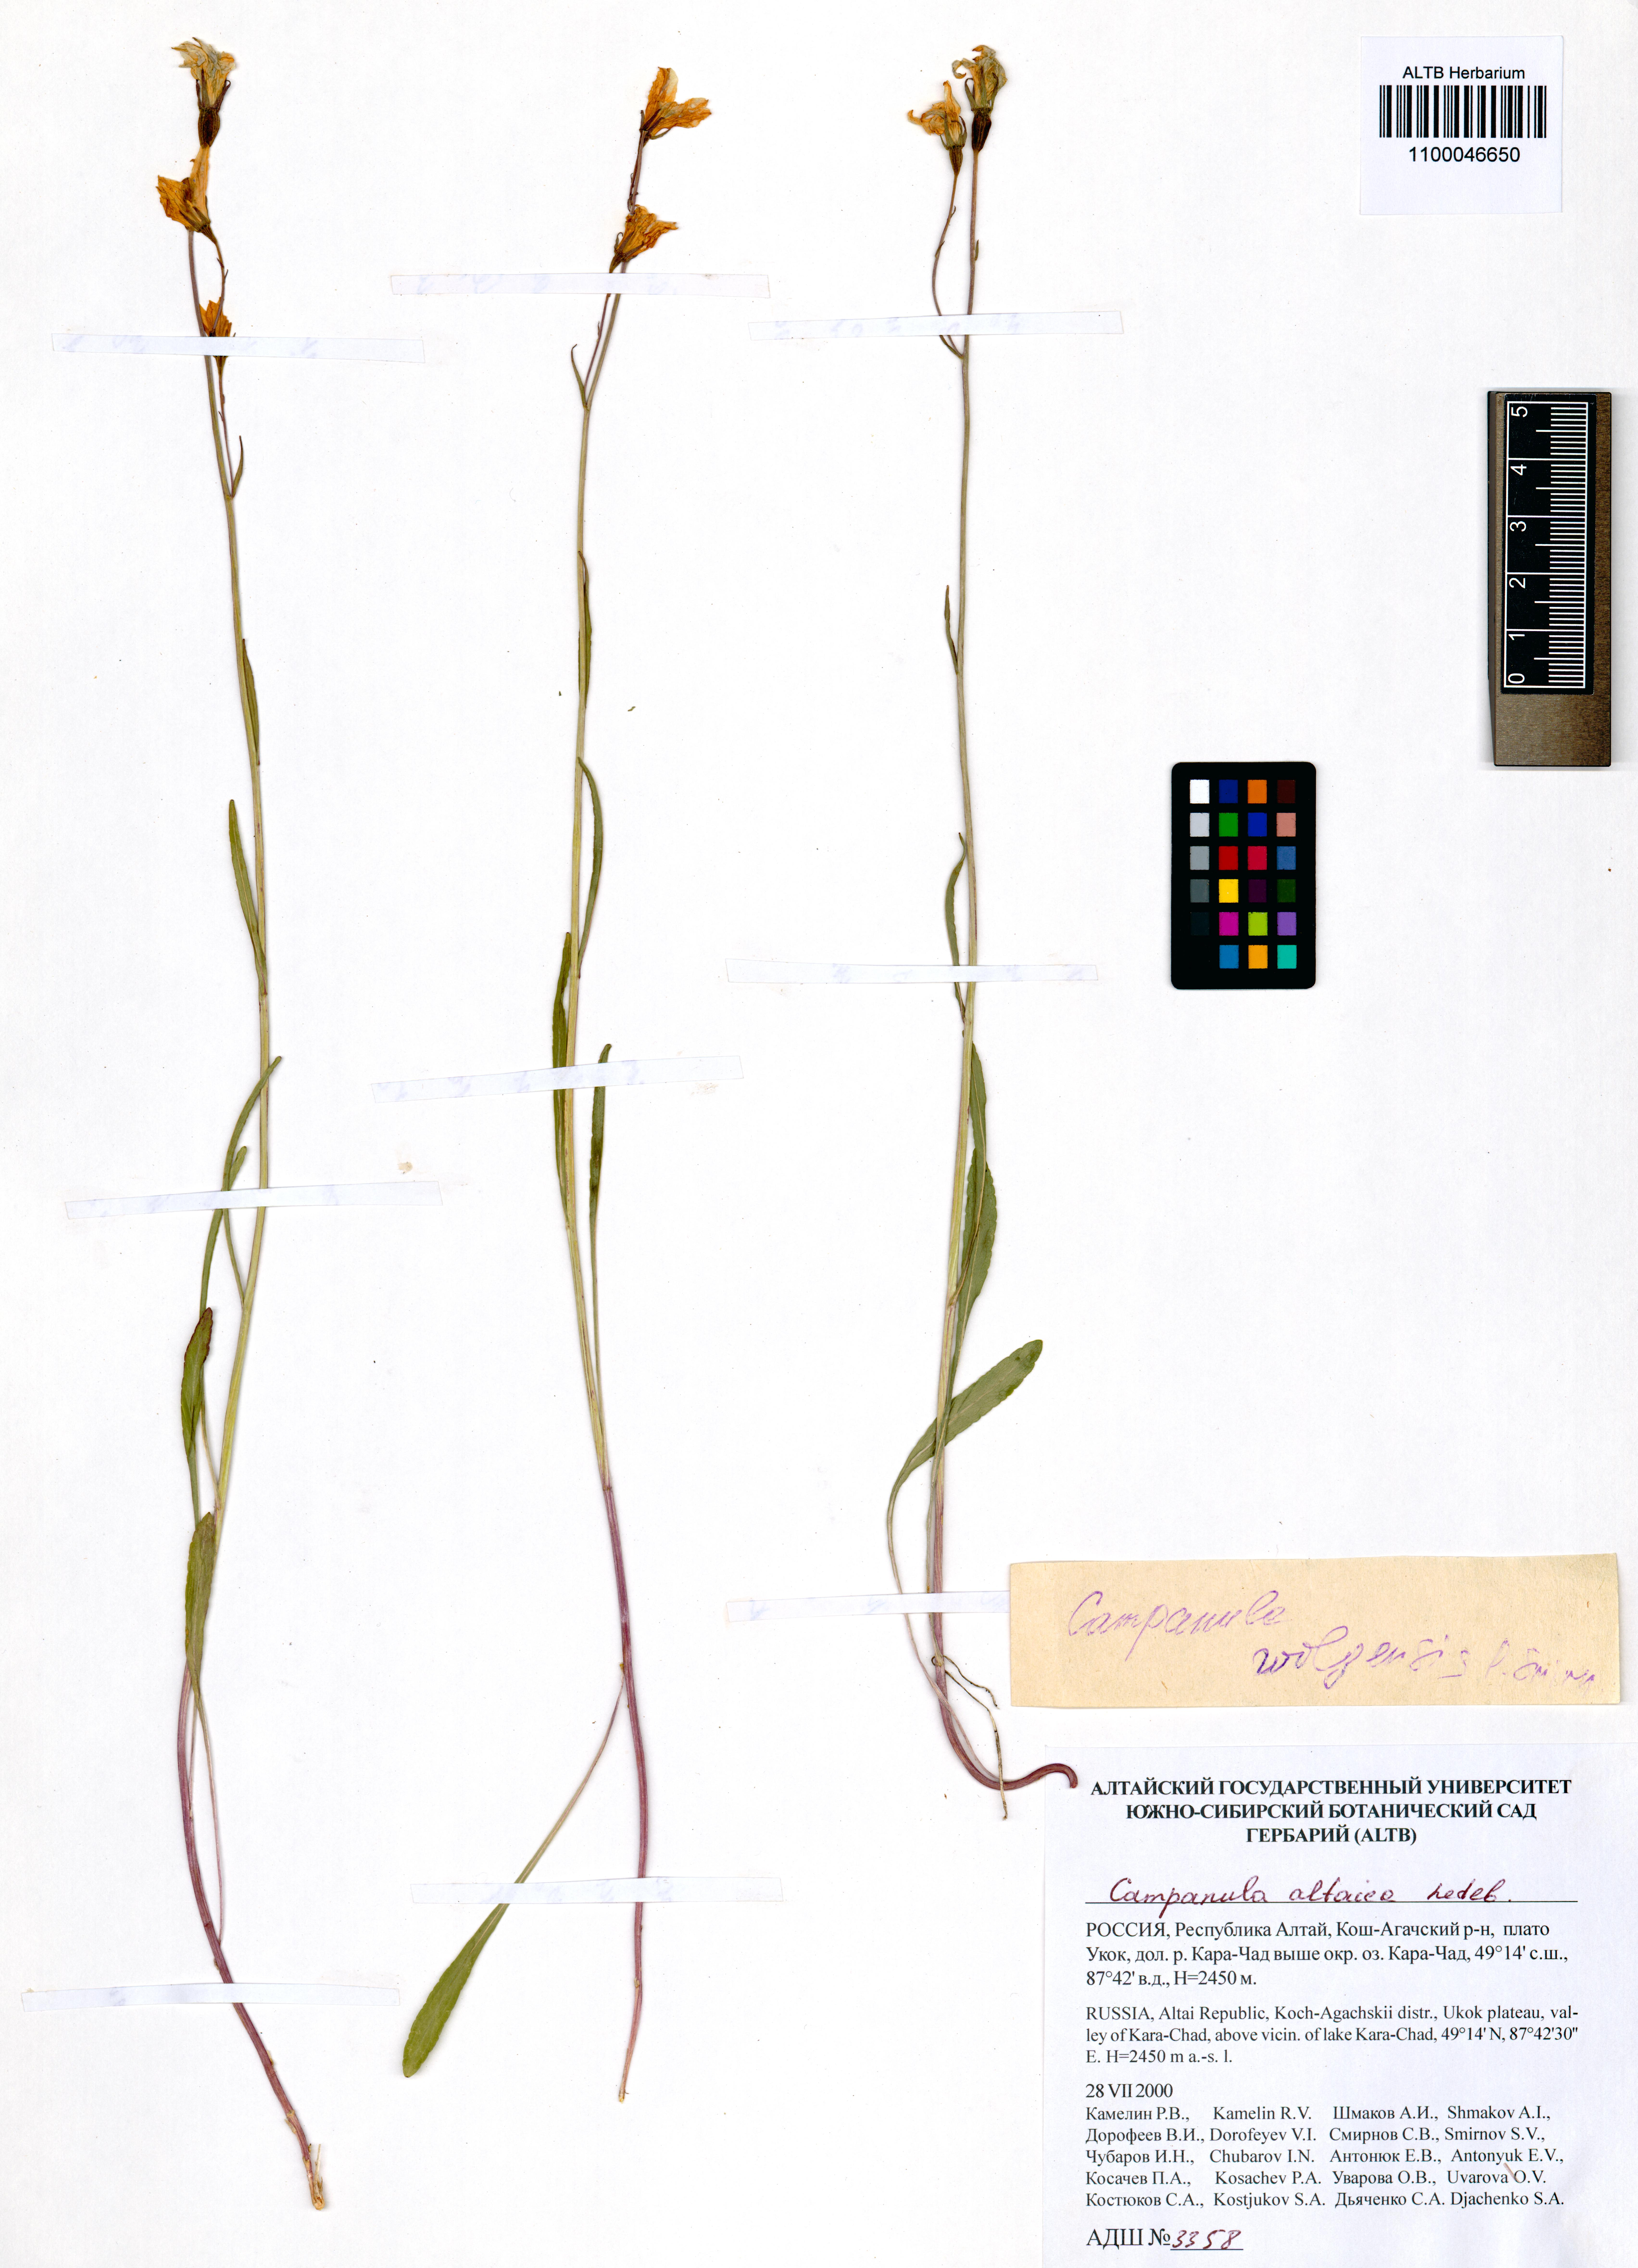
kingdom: Plantae
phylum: Tracheophyta
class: Magnoliopsida
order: Asterales
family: Campanulaceae
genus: Campanula
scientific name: Campanula stevenii
